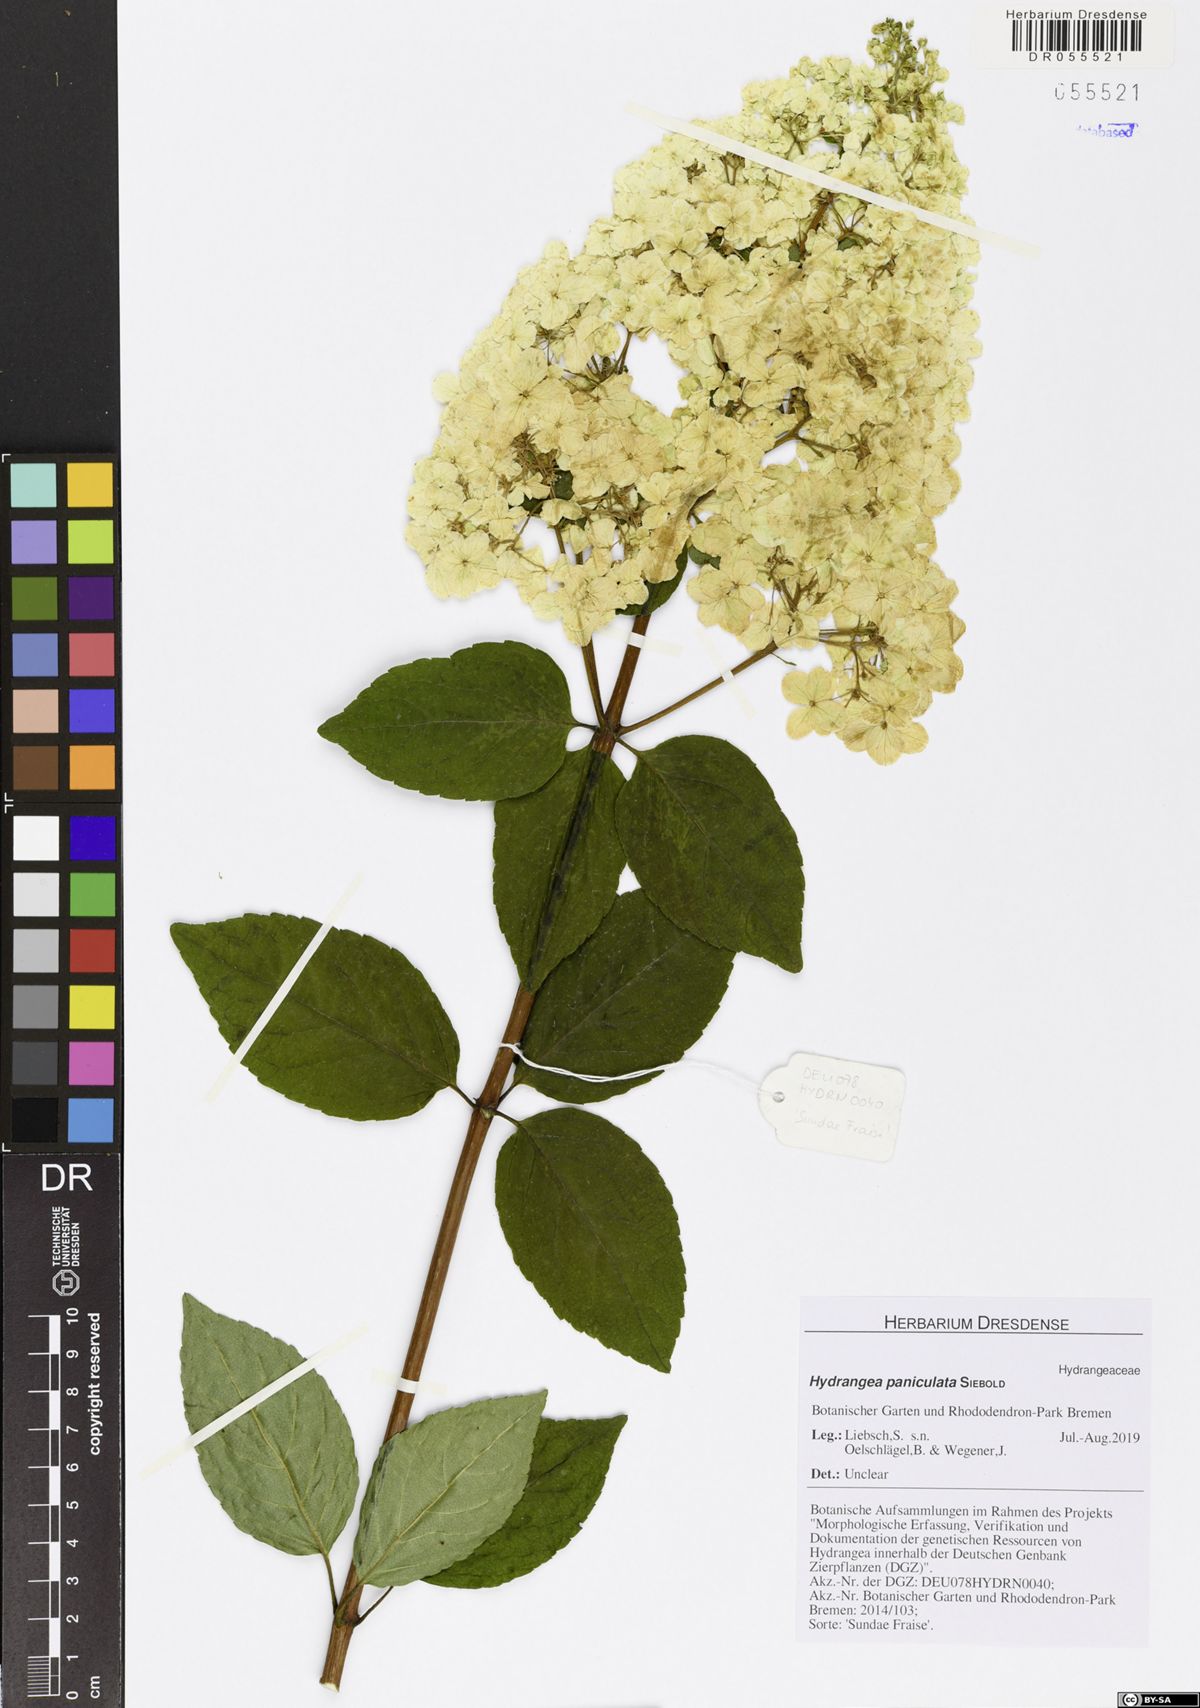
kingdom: Plantae
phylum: Tracheophyta
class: Magnoliopsida
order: Cornales
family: Hydrangeaceae
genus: Hydrangea
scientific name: Hydrangea paniculata
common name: Panicled hydrangea
